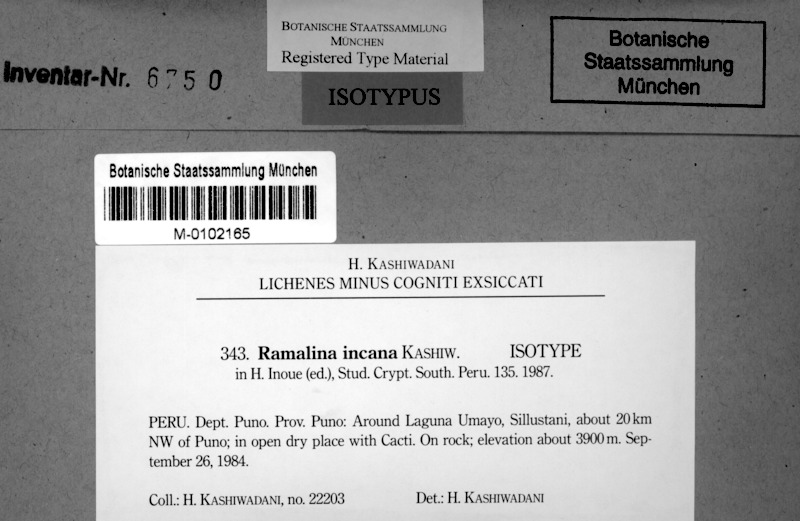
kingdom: Fungi
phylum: Ascomycota
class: Lecanoromycetes
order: Lecanorales
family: Ramalinaceae
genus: Ramalina
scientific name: Ramalina incana
